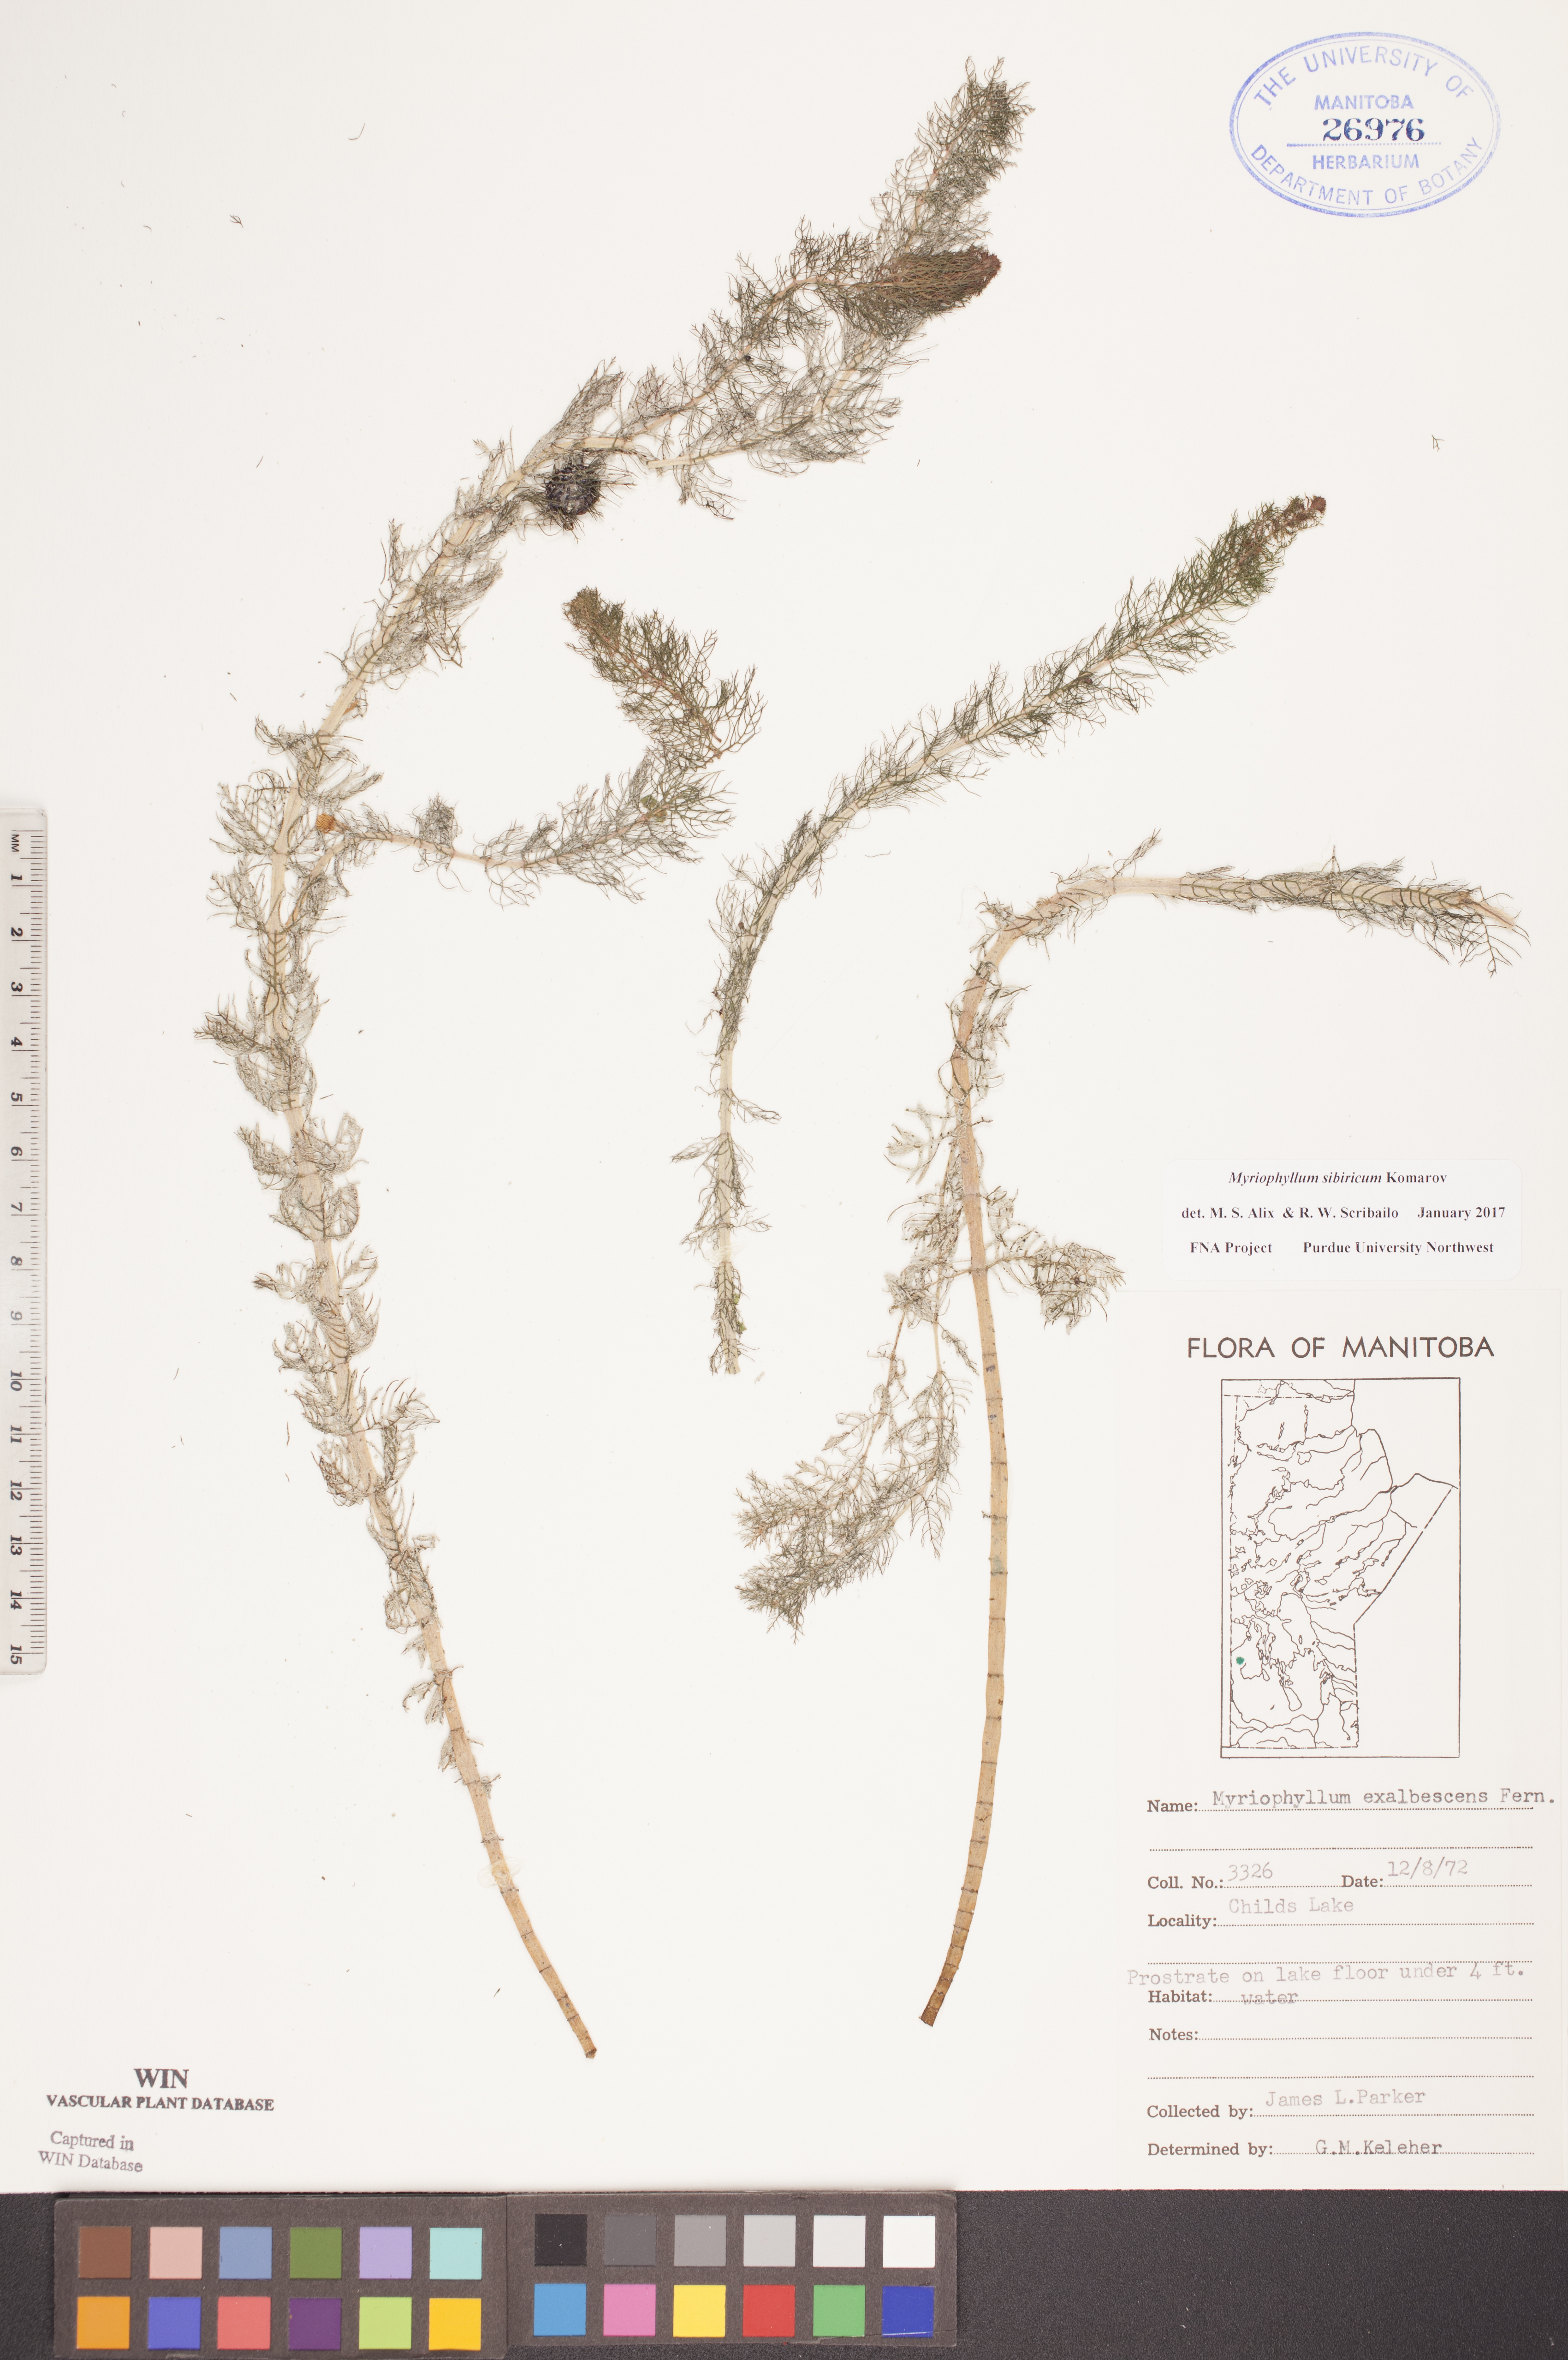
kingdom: Plantae
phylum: Tracheophyta
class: Magnoliopsida
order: Saxifragales
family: Haloragaceae
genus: Myriophyllum
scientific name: Myriophyllum sibiricum
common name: Siberian water-milfoil
